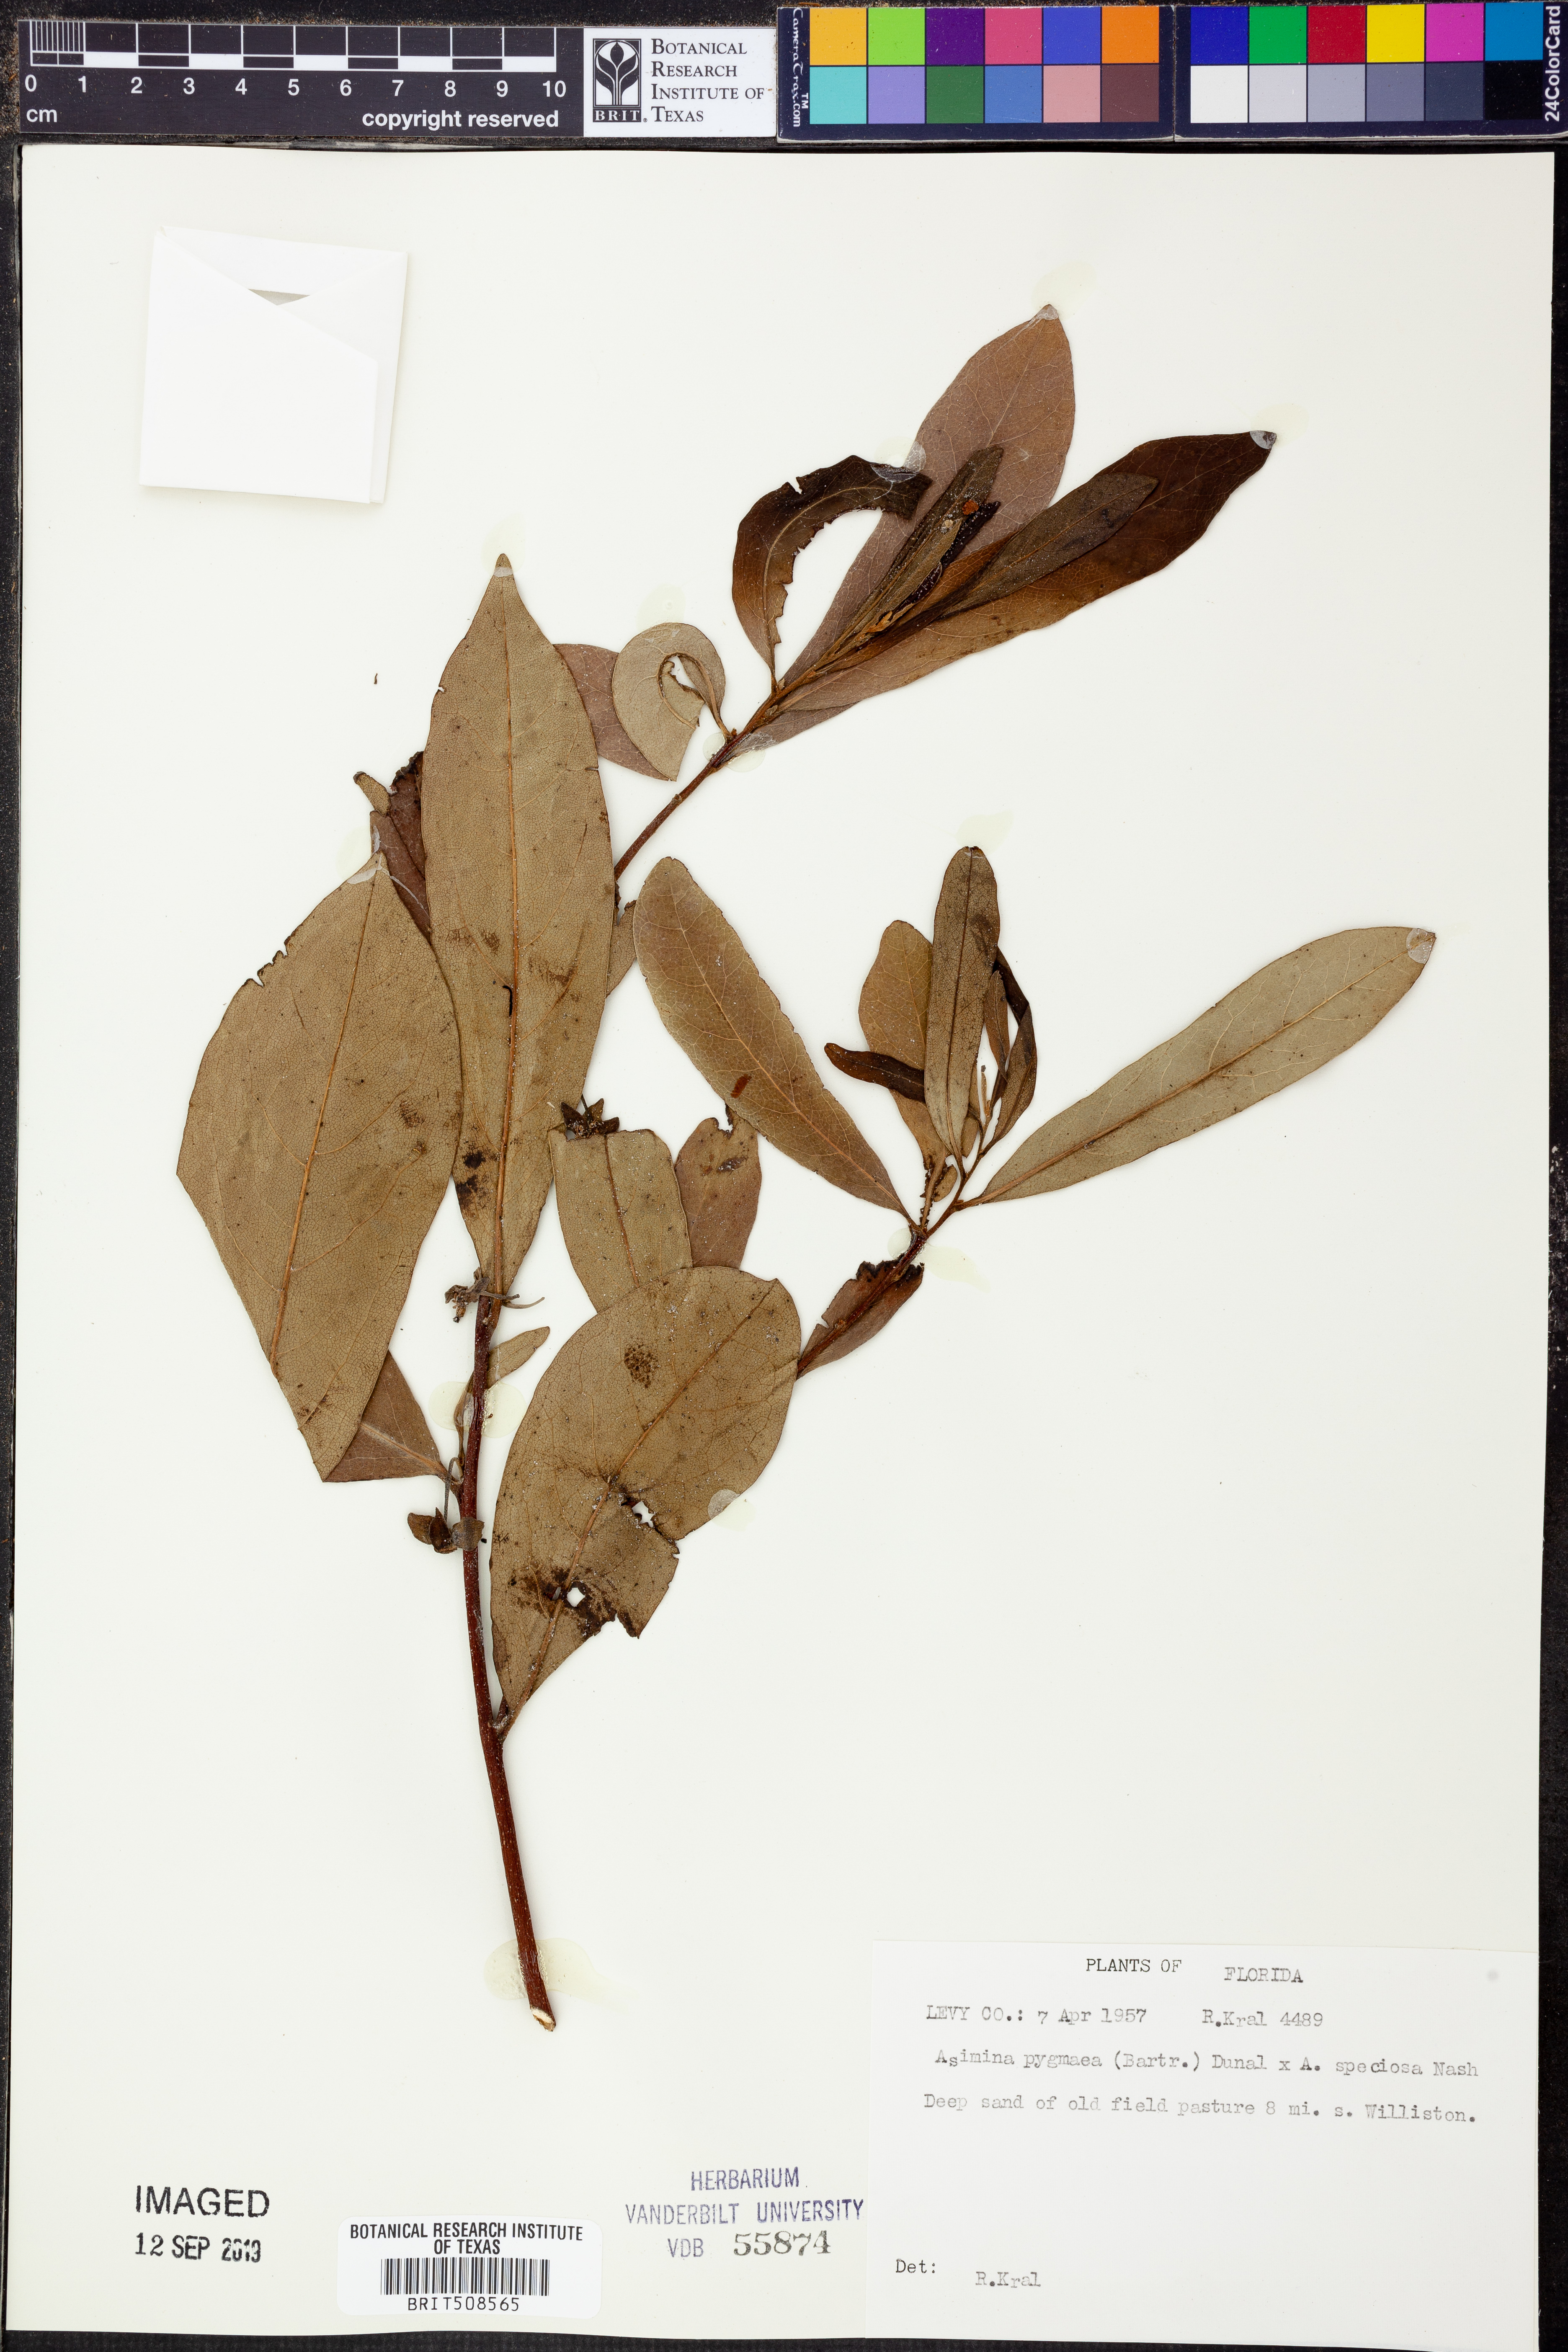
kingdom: Plantae
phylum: Tracheophyta
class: Magnoliopsida
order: Magnoliales
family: Annonaceae
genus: Asimina
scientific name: Asimina pygmaea
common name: Dwarf pawpaw
